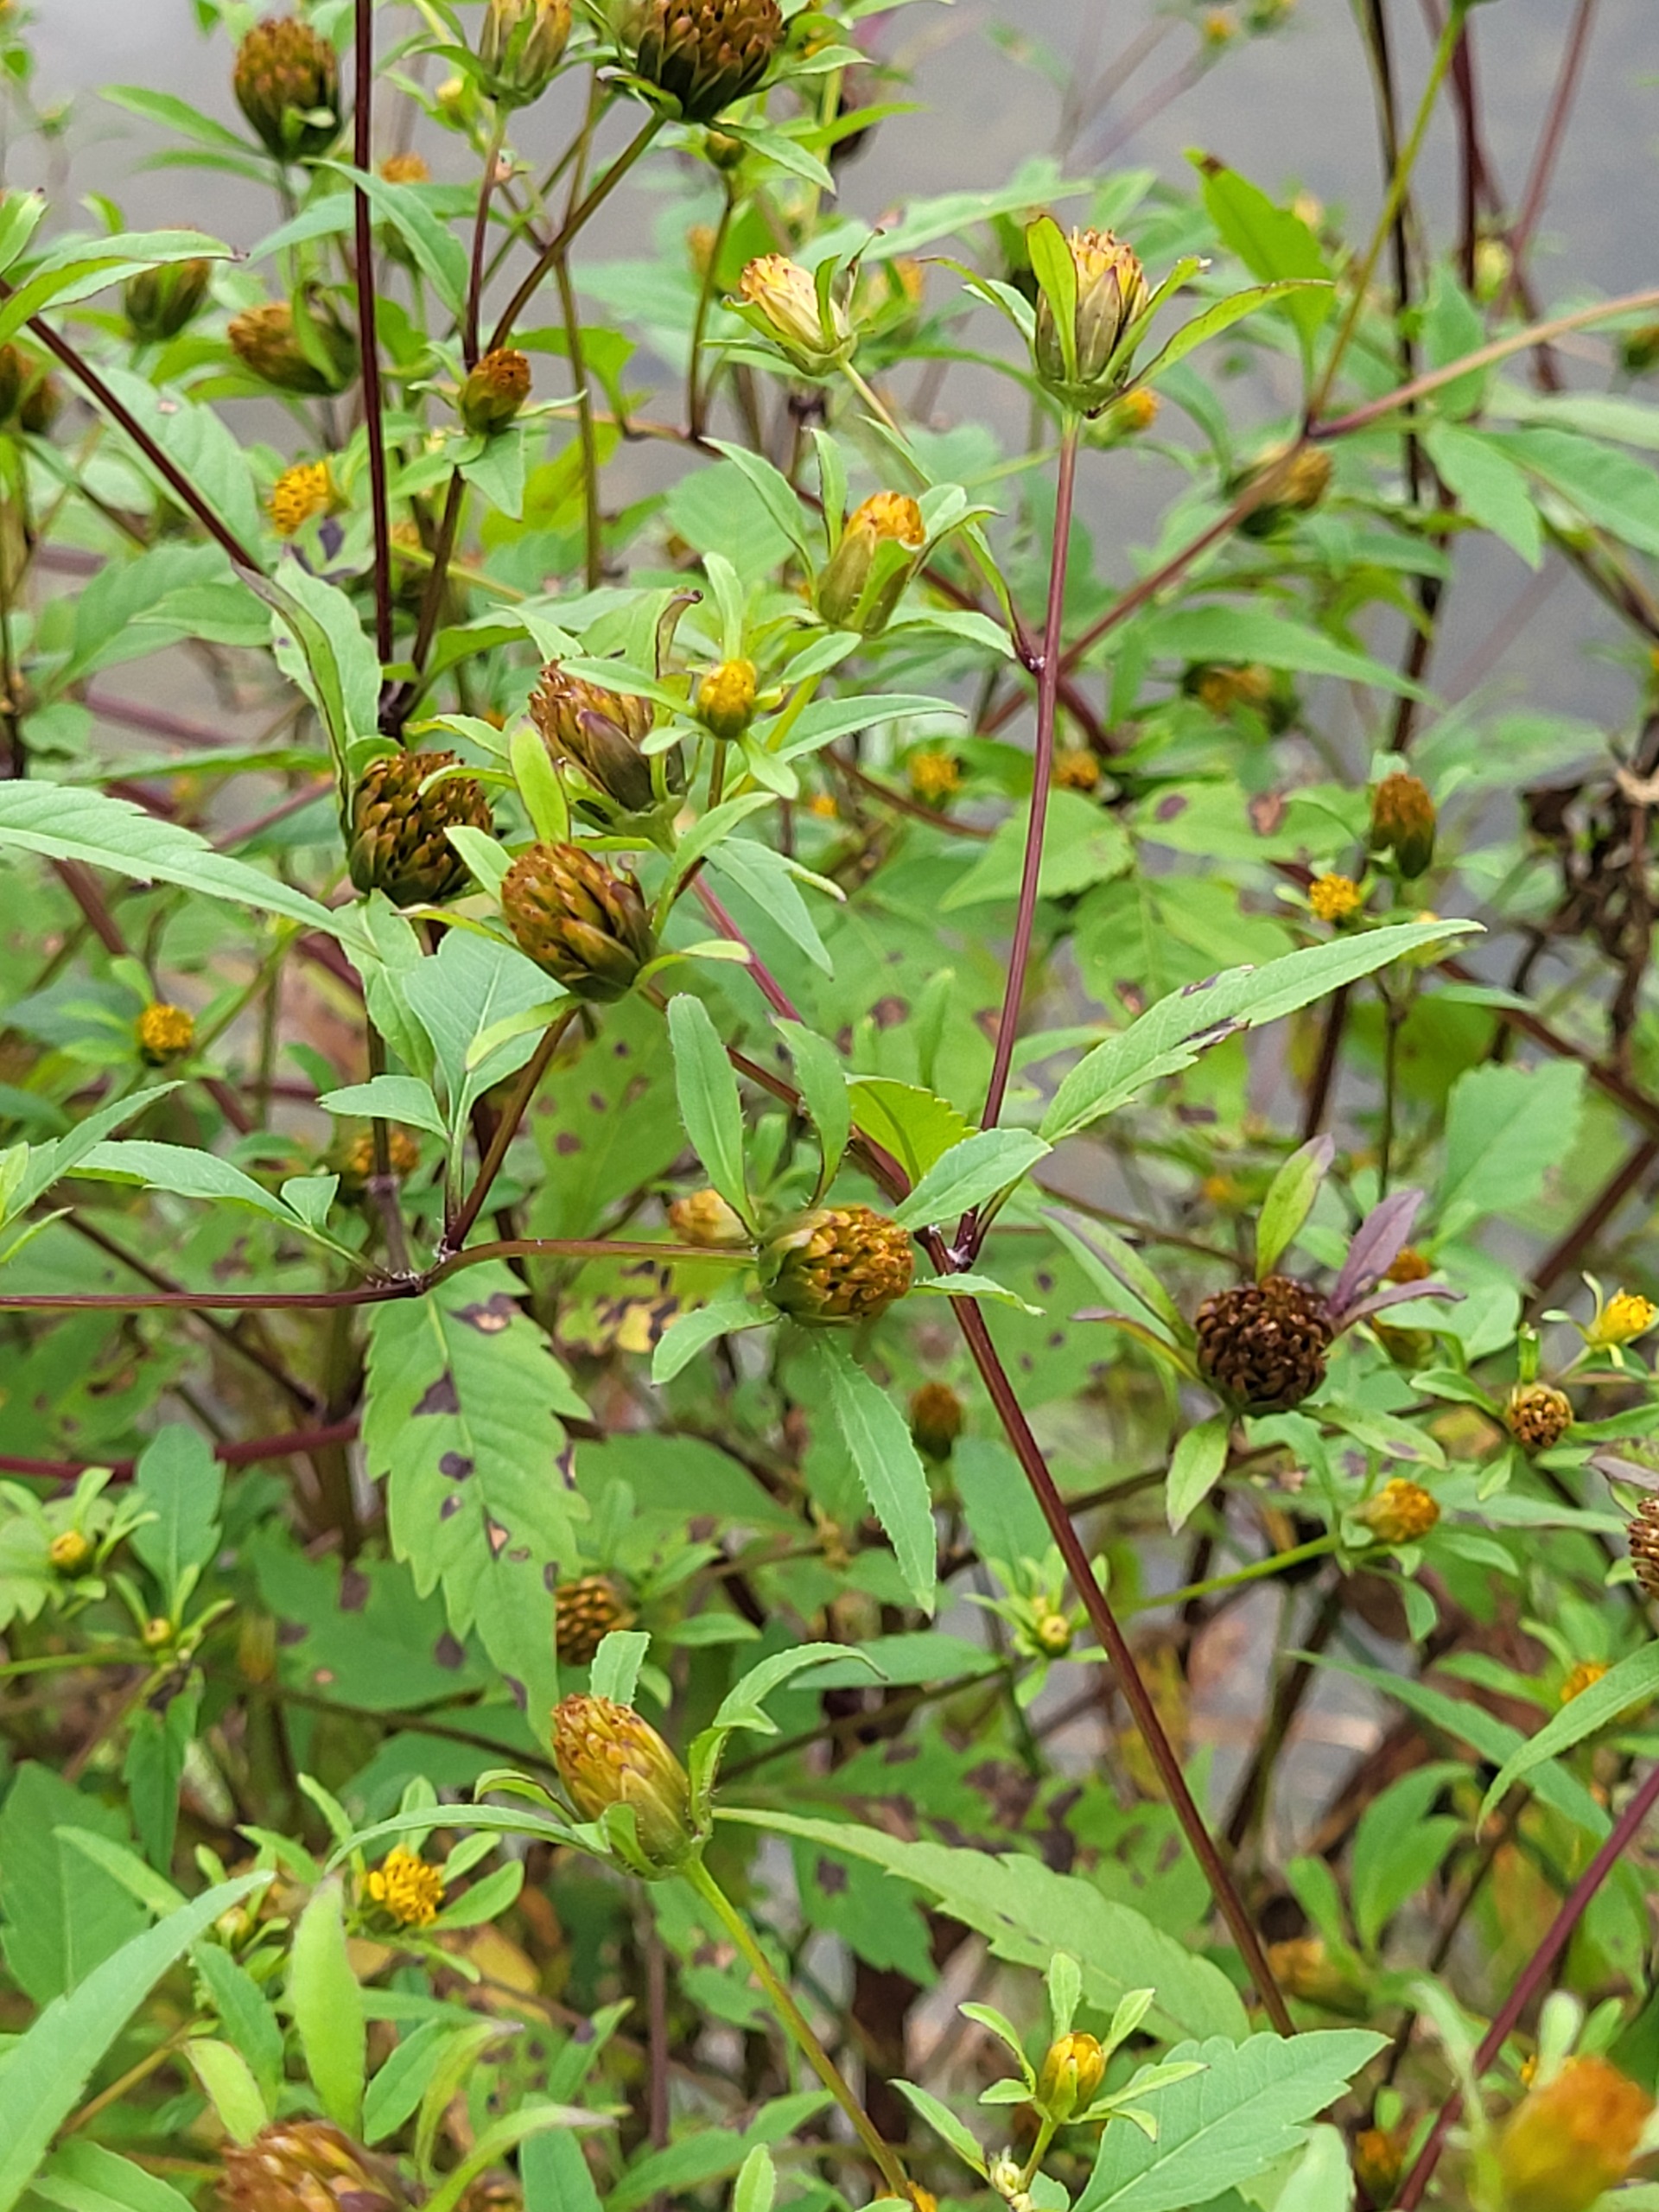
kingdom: Plantae
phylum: Tracheophyta
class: Magnoliopsida
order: Asterales
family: Asteraceae
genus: Bidens
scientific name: Bidens tripartita
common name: Fliget brøndsel
